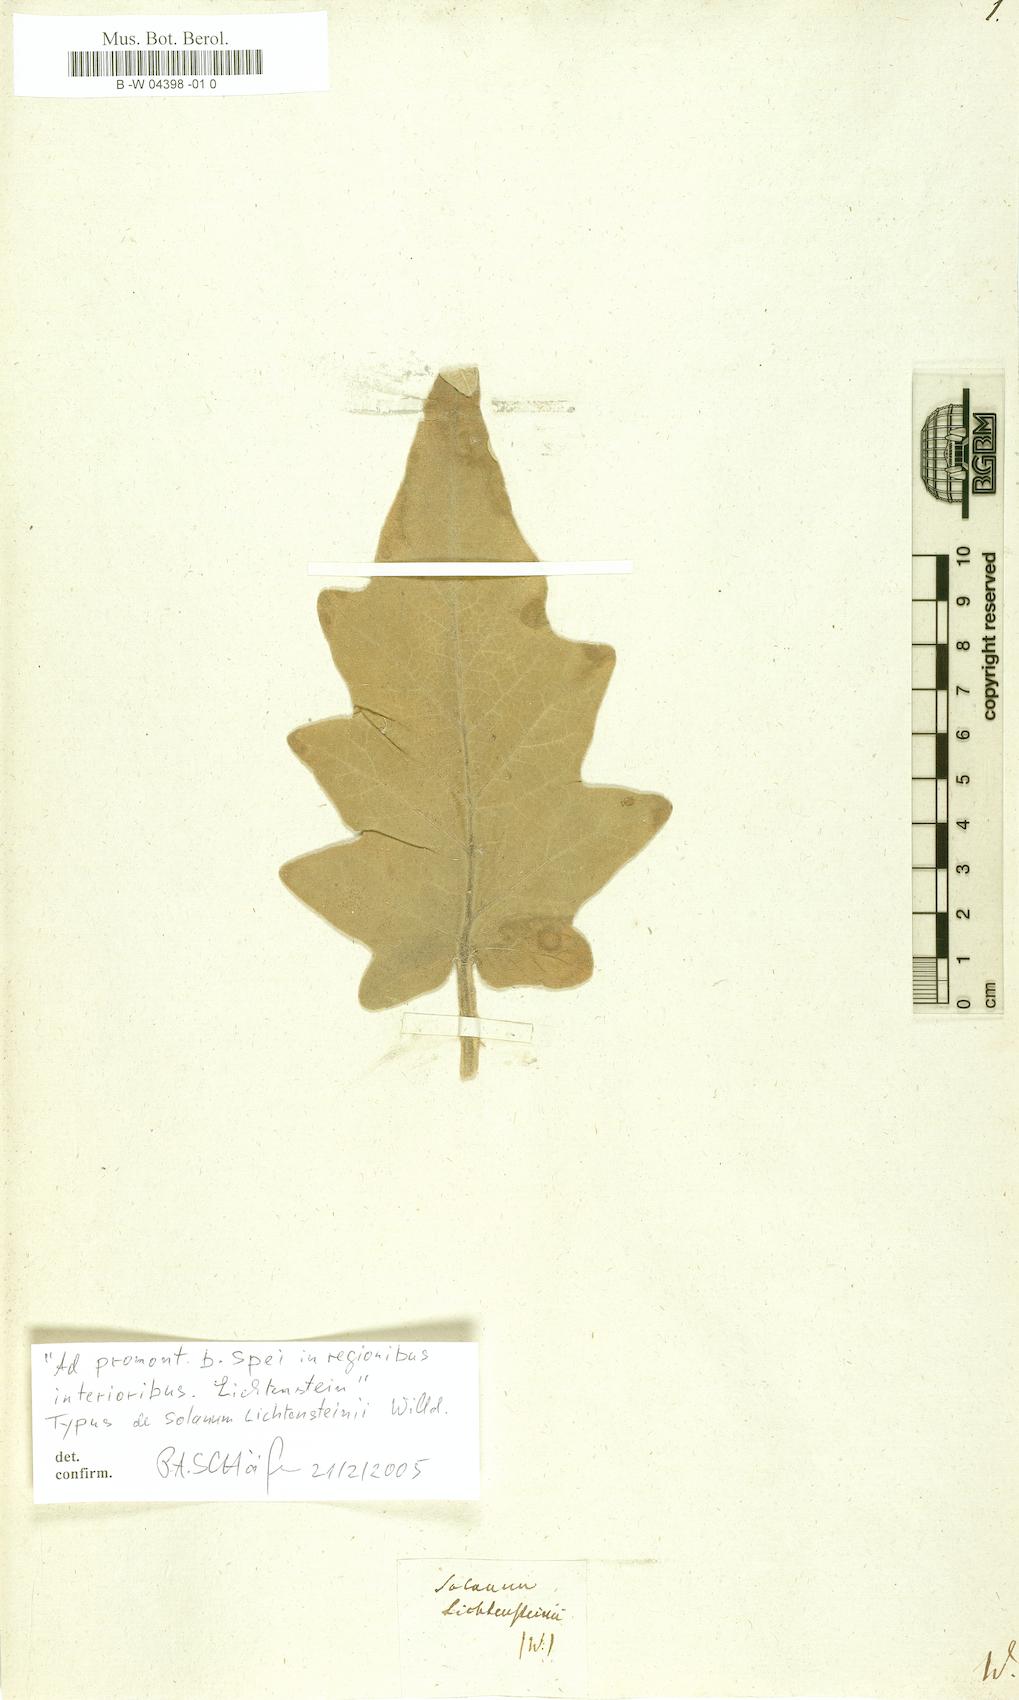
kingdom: Plantae
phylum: Tracheophyta
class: Magnoliopsida
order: Solanales
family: Solanaceae
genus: Solanum
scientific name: Solanum lichtensteinii
